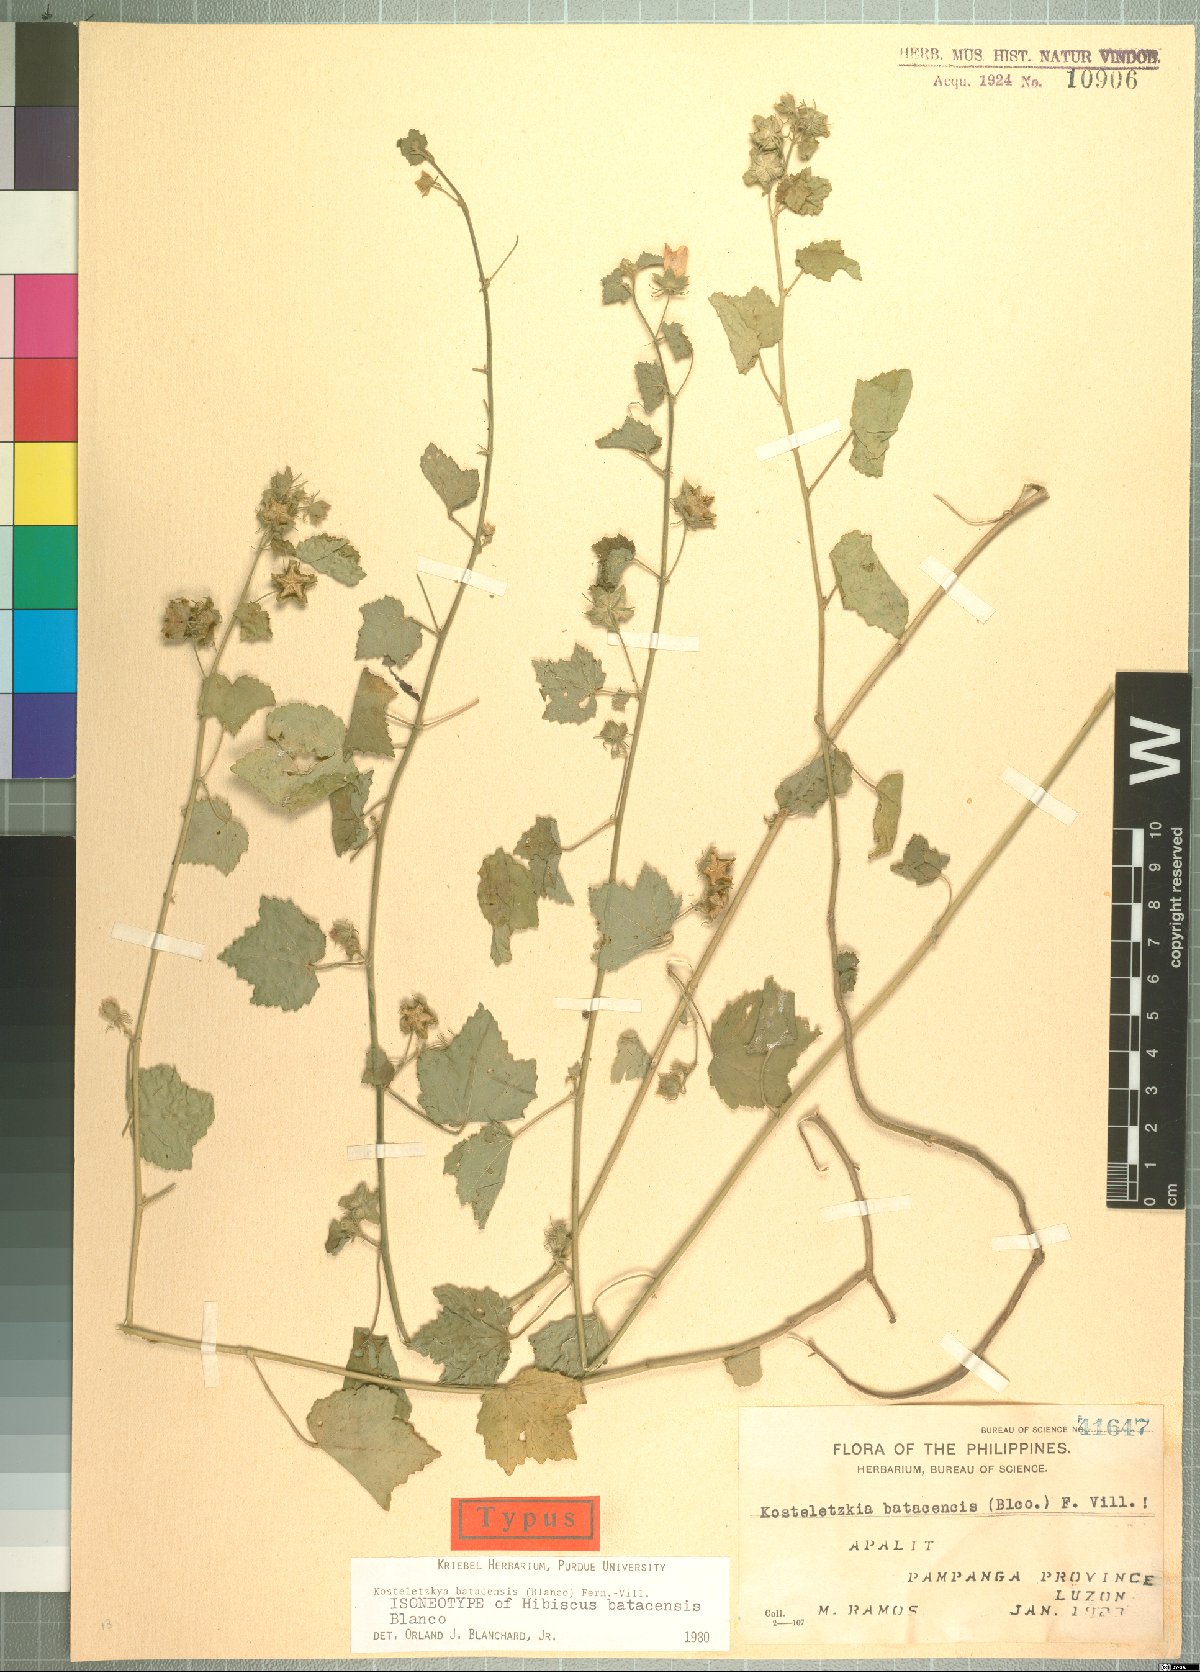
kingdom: Plantae
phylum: Tracheophyta
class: Magnoliopsida
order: Malvales
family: Malvaceae
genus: Kosteletzkya
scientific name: Kosteletzkya batacensis
